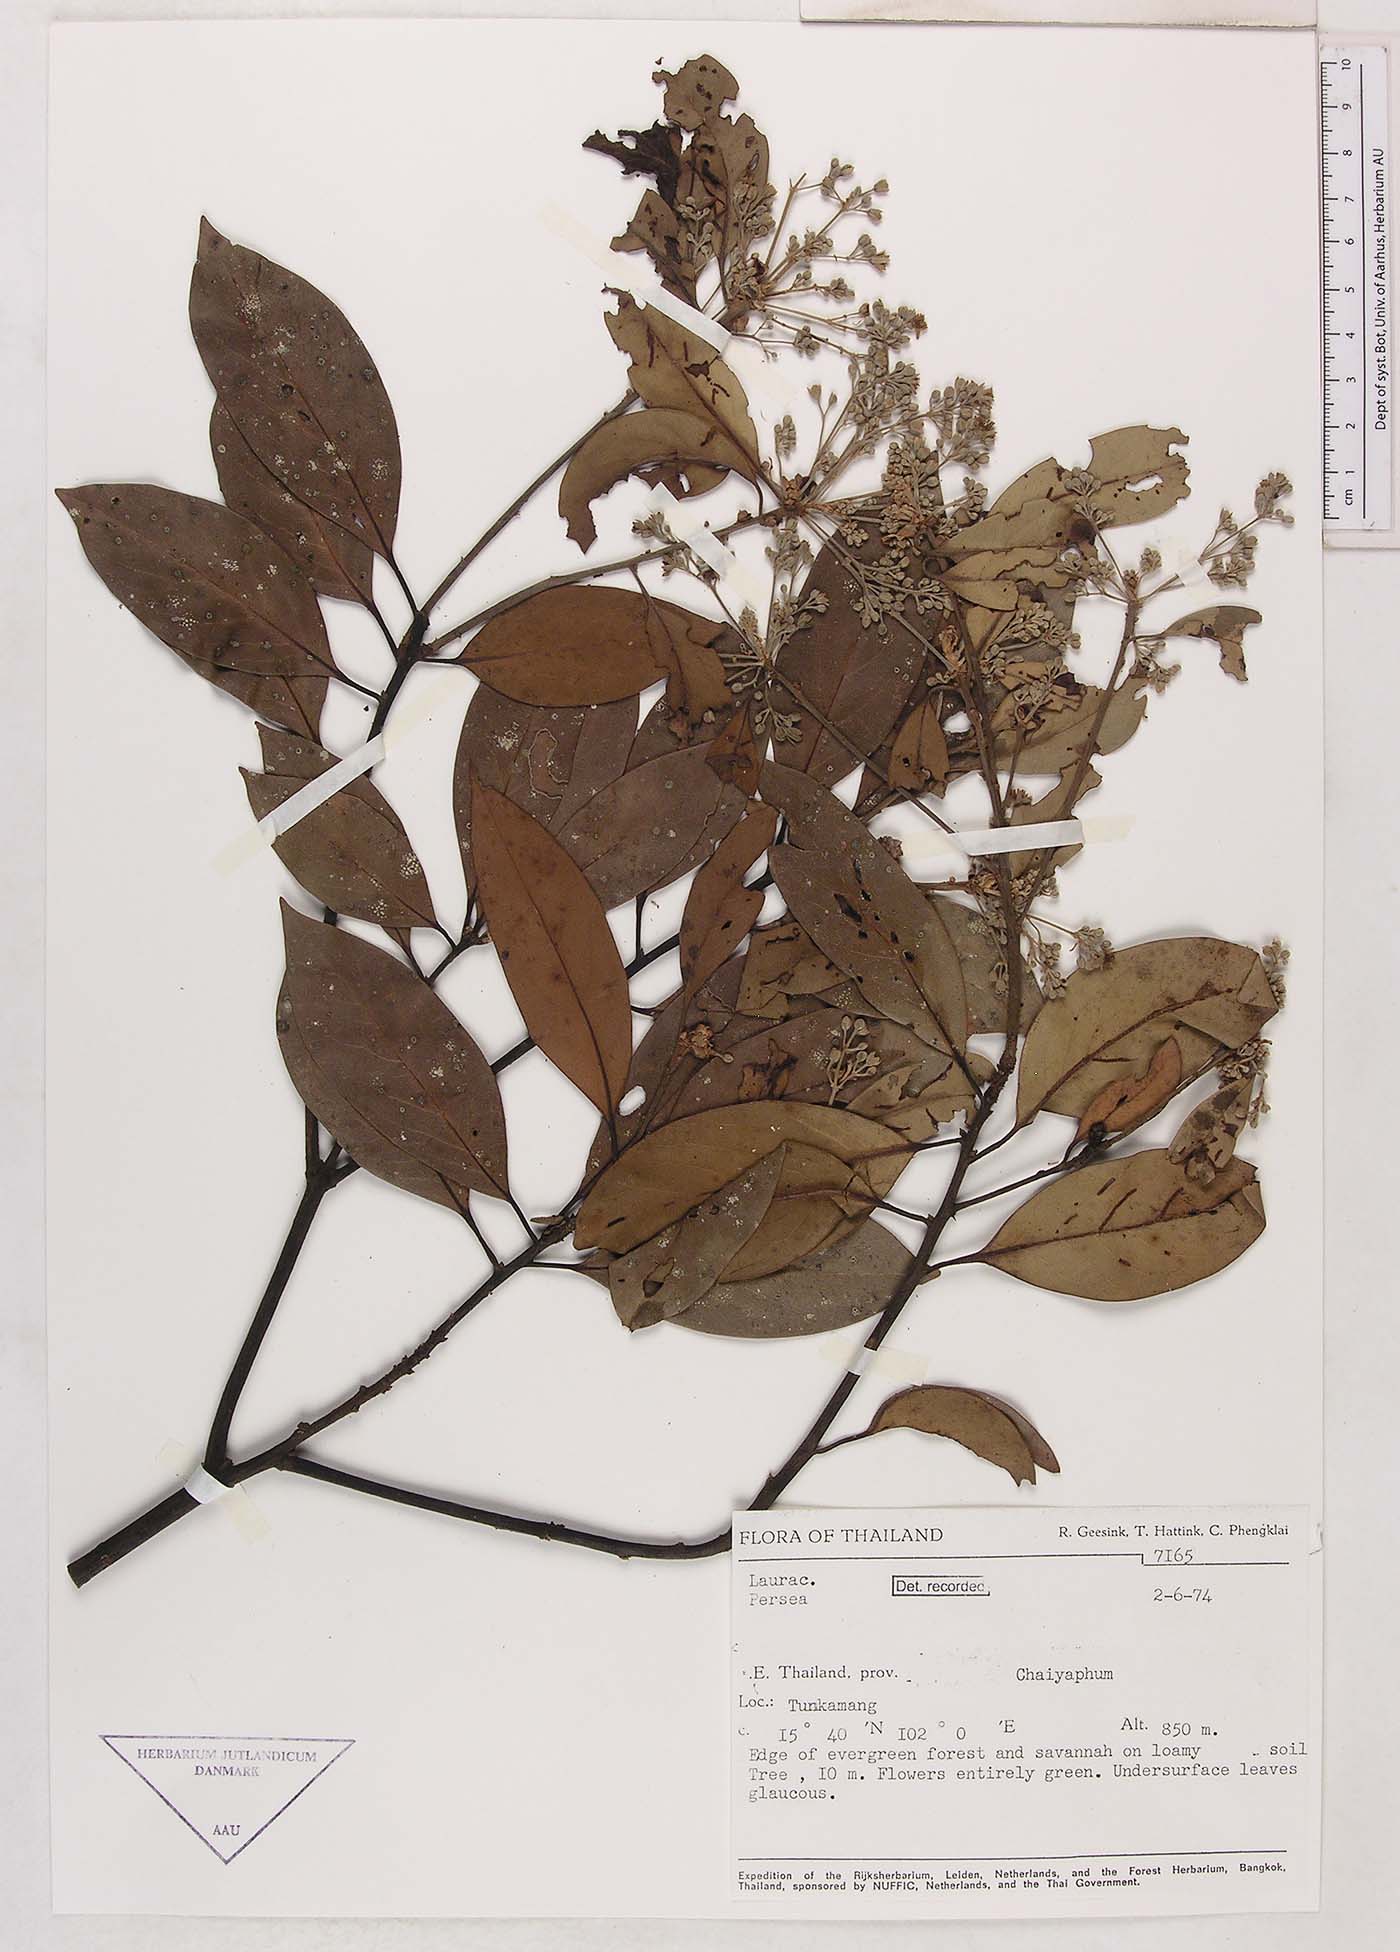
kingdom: Plantae
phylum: Tracheophyta
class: Magnoliopsida
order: Laurales
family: Lauraceae
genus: Persea
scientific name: Persea
